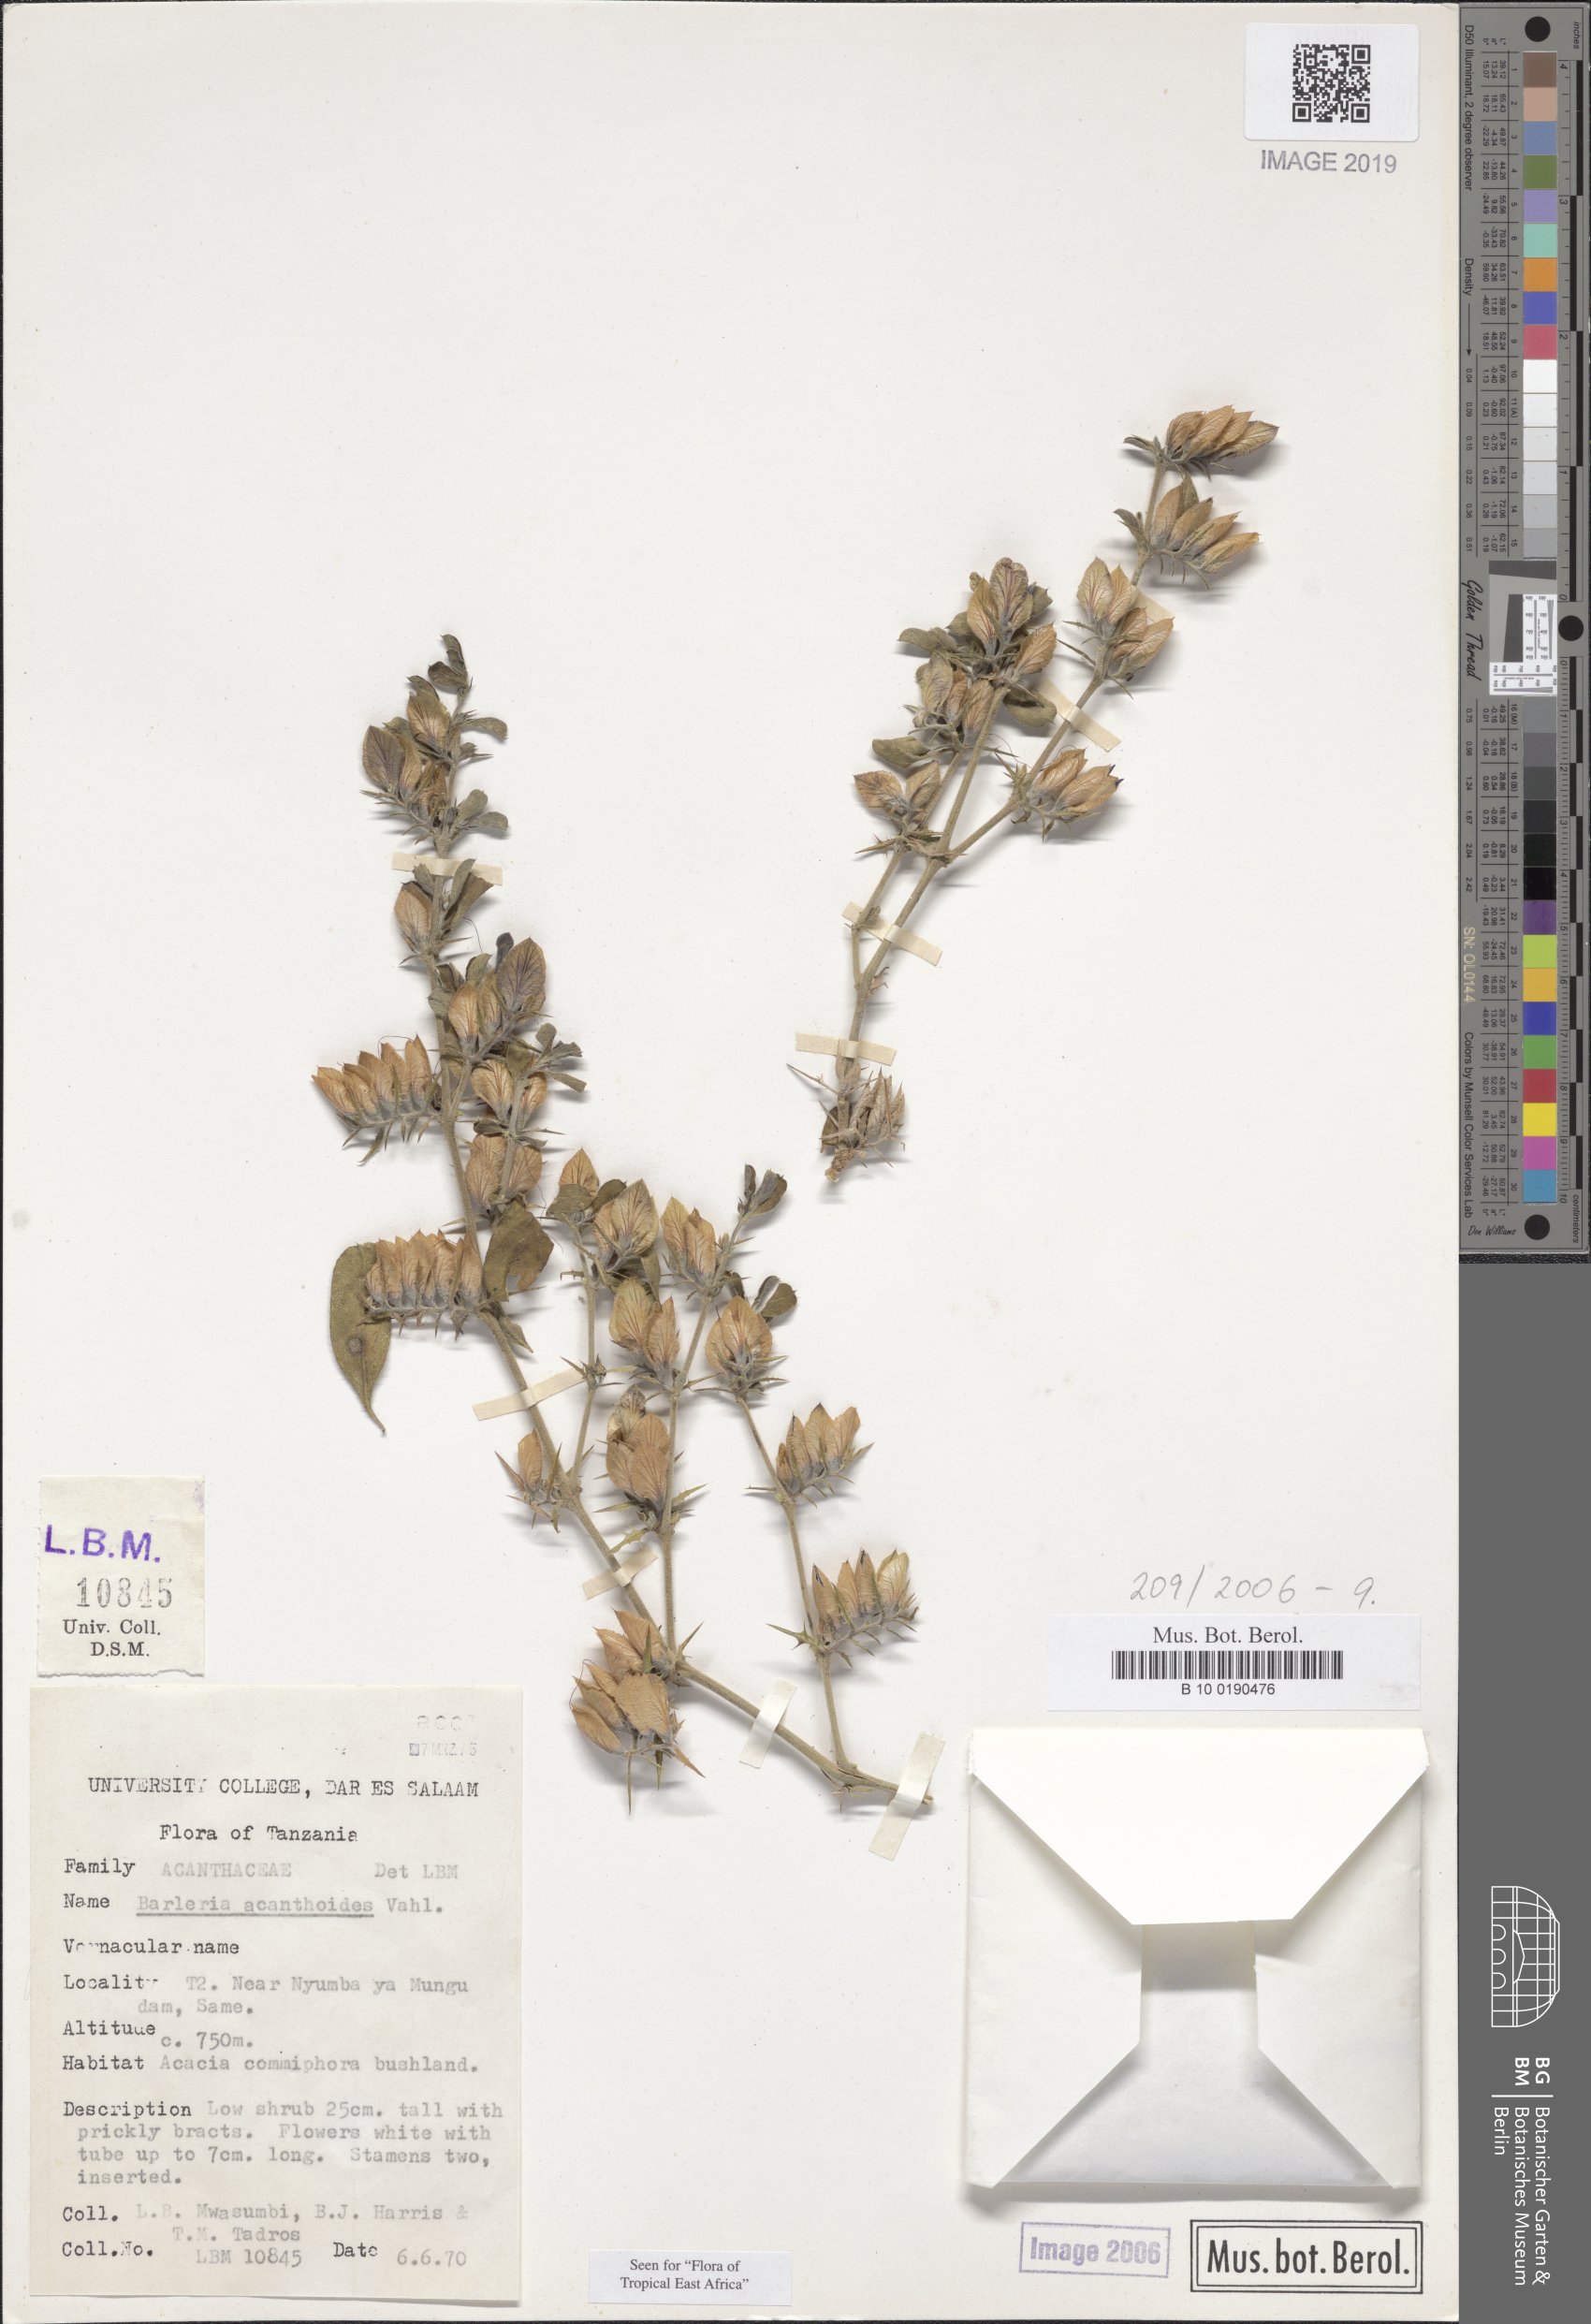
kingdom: Plantae
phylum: Tracheophyta
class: Magnoliopsida
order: Lamiales
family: Acanthaceae
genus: Barleria
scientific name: Barleria acanthoides
